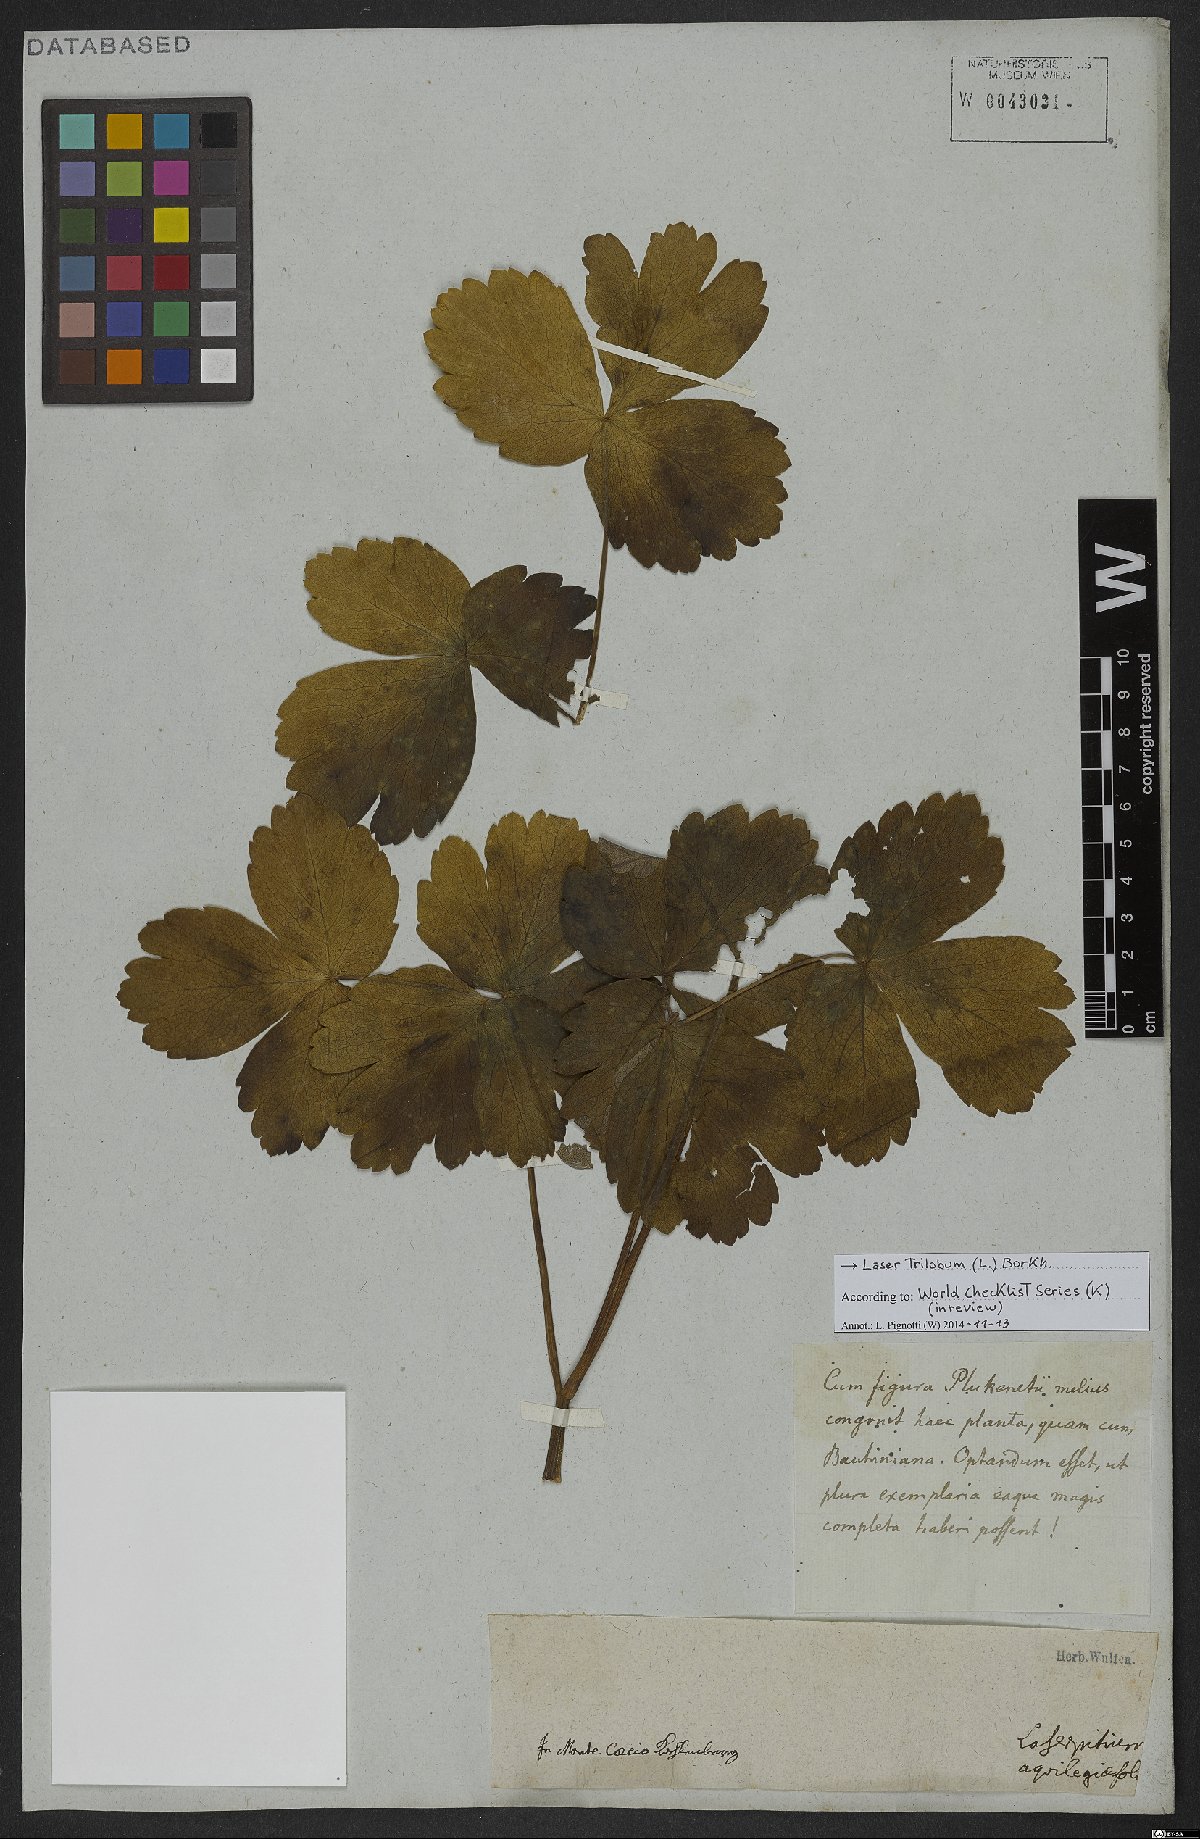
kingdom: Plantae
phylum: Tracheophyta
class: Magnoliopsida
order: Apiales
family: Apiaceae
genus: Laser
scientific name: Laser trilobum
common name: Laser
